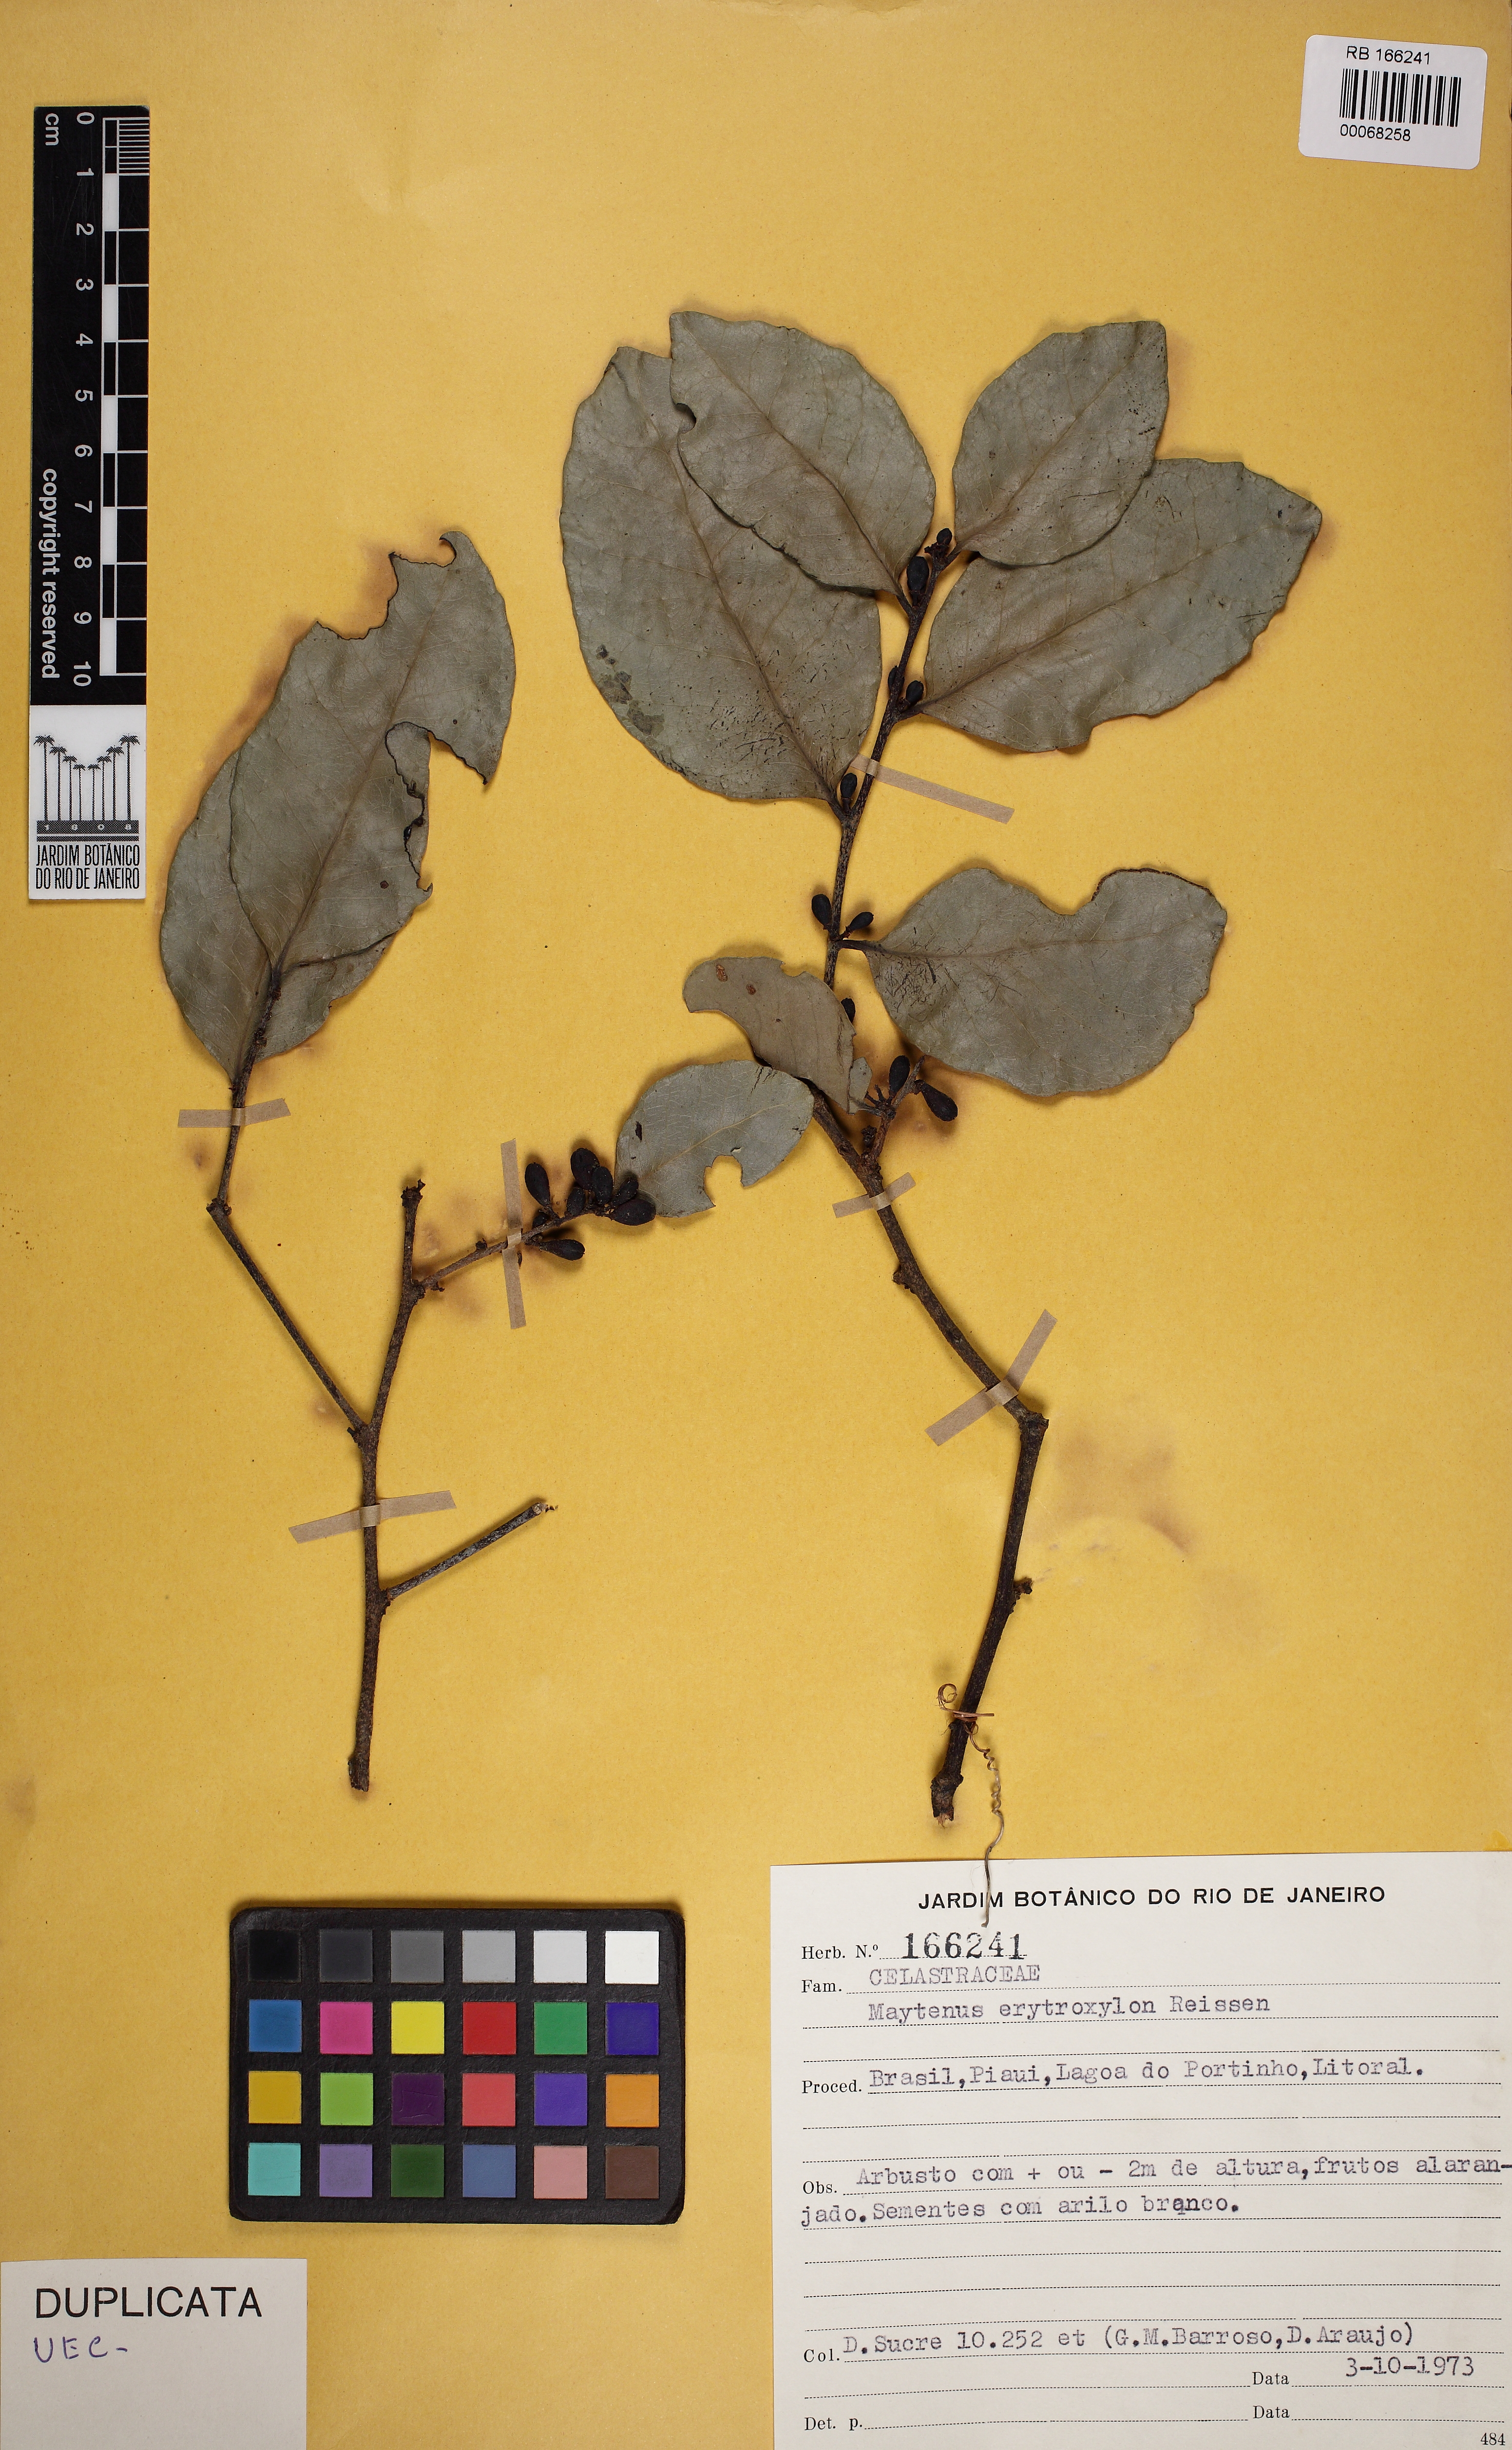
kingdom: Plantae
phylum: Tracheophyta
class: Magnoliopsida
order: Celastrales
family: Celastraceae
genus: Monteverdia
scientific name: Monteverdia evonymoides
